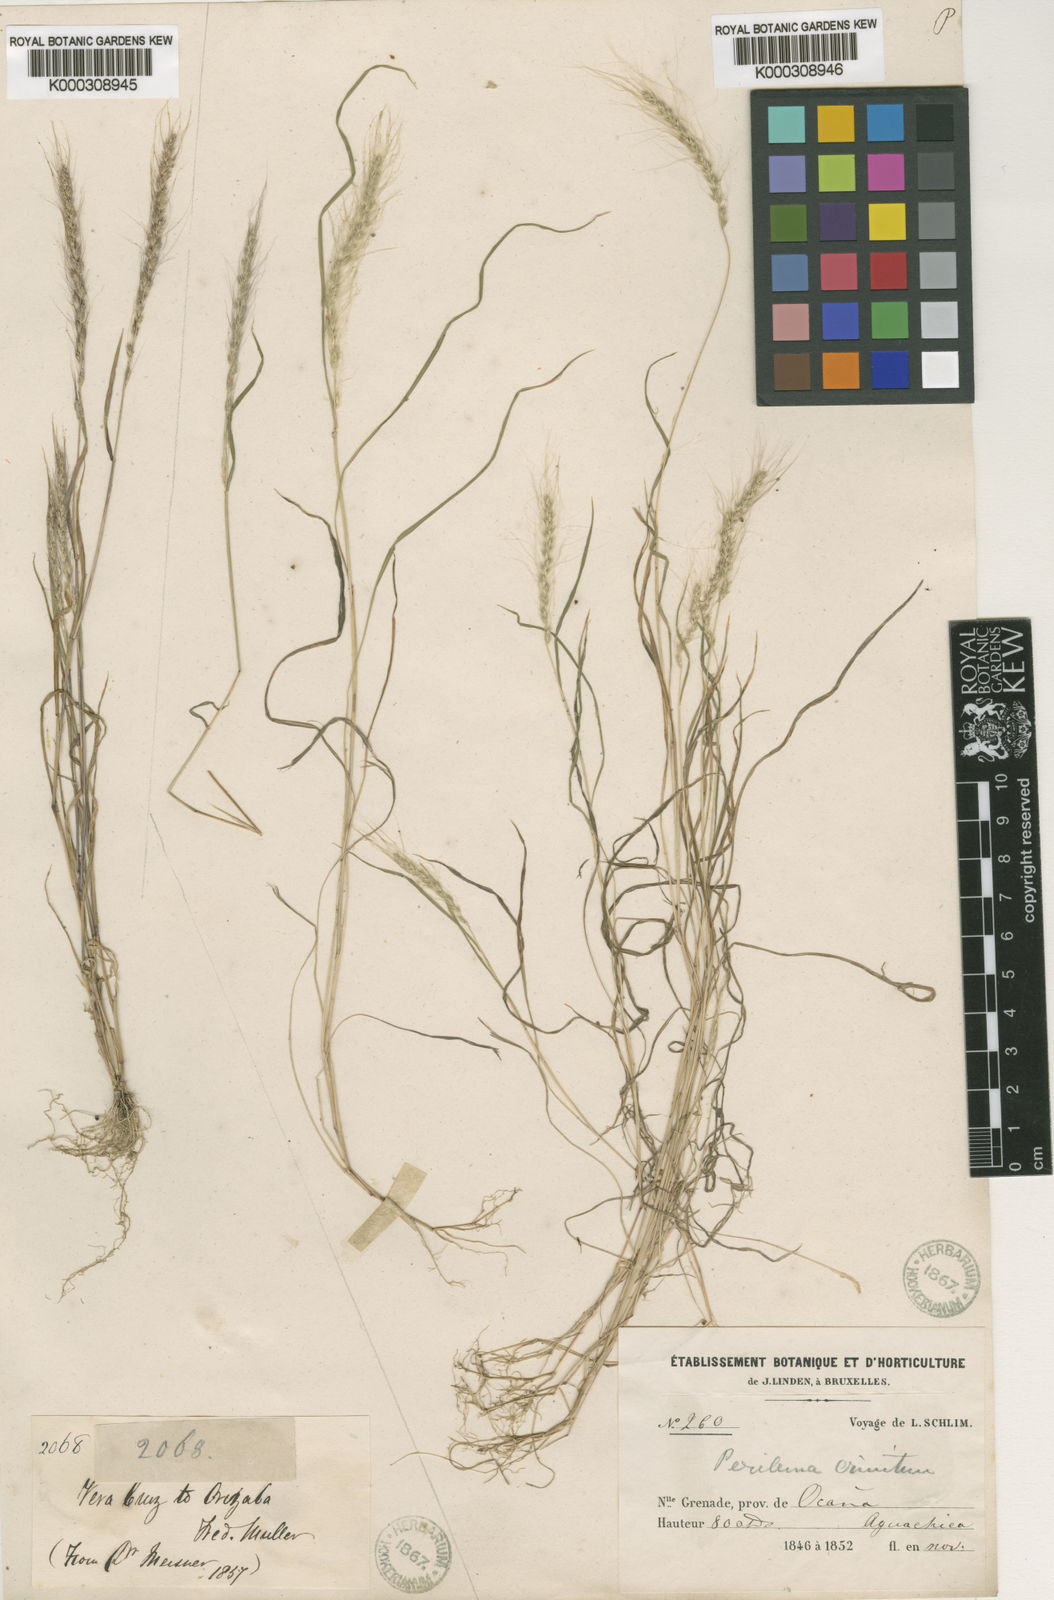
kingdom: Plantae
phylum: Tracheophyta
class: Liliopsida
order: Poales
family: Poaceae
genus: Muhlenbergia
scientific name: Muhlenbergia pereilema
